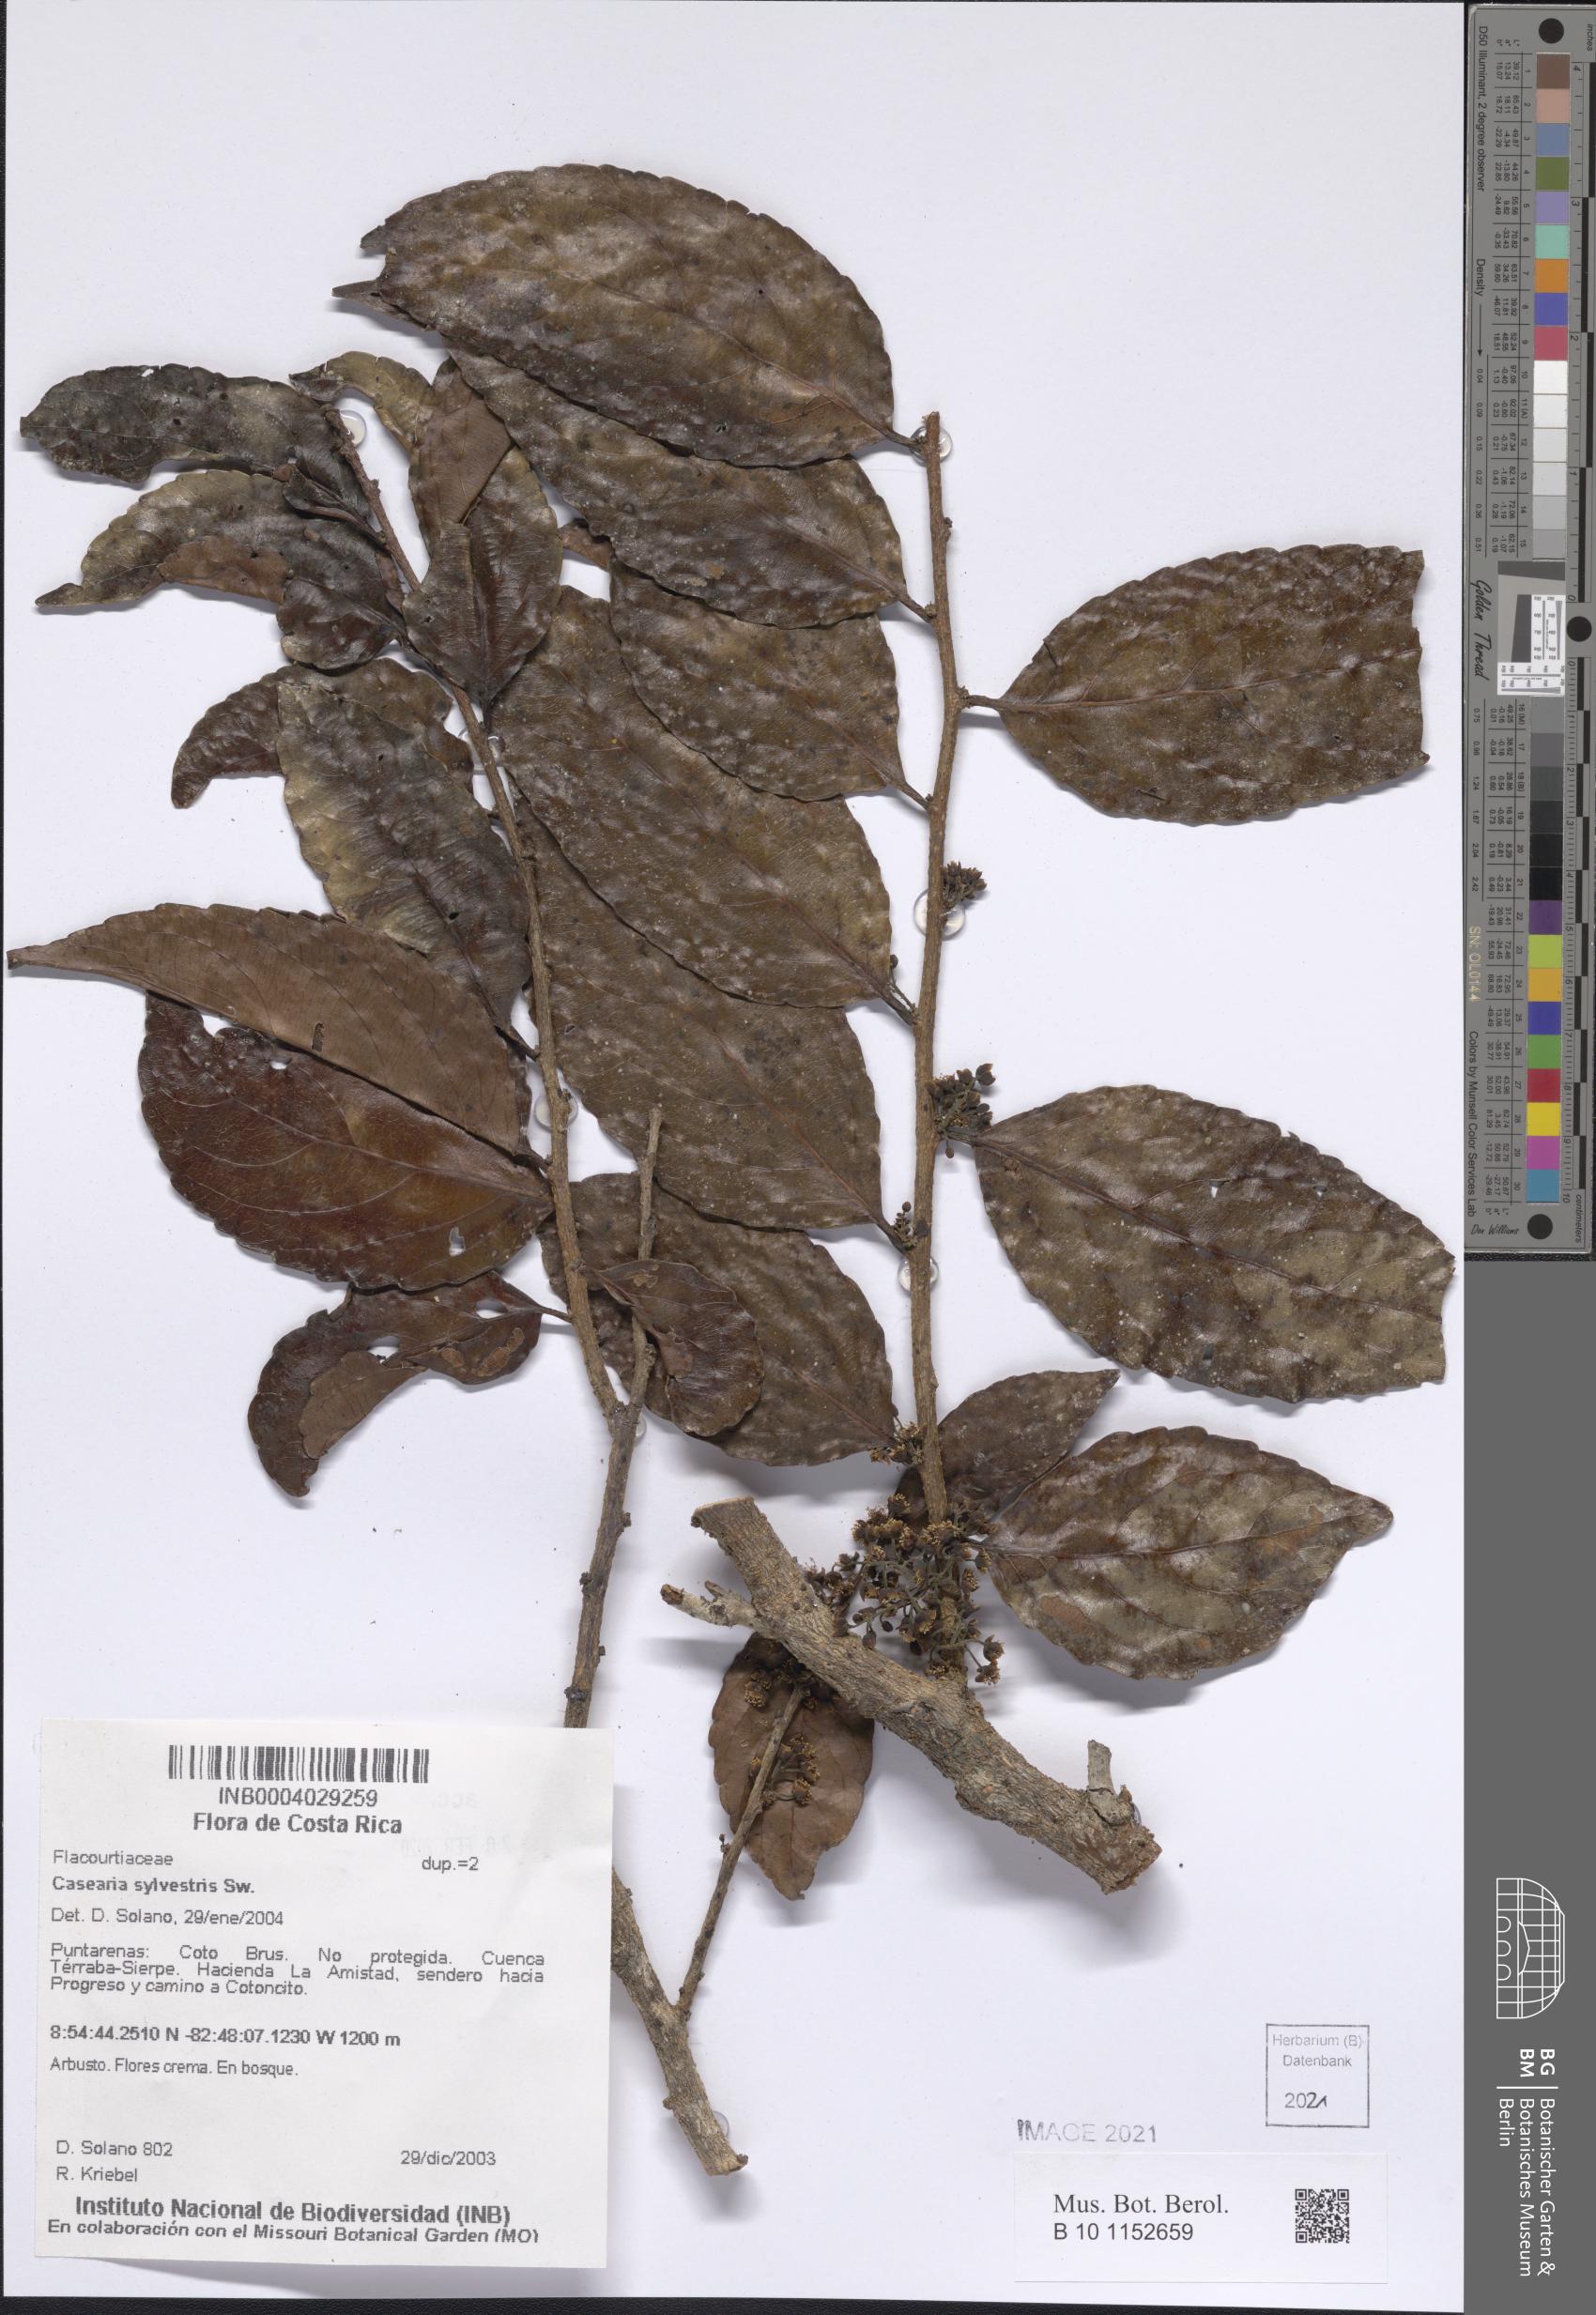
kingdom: Plantae
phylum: Tracheophyta
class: Magnoliopsida
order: Malpighiales
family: Salicaceae
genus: Casearia
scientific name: Casearia sylvestris
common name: Wild sage
